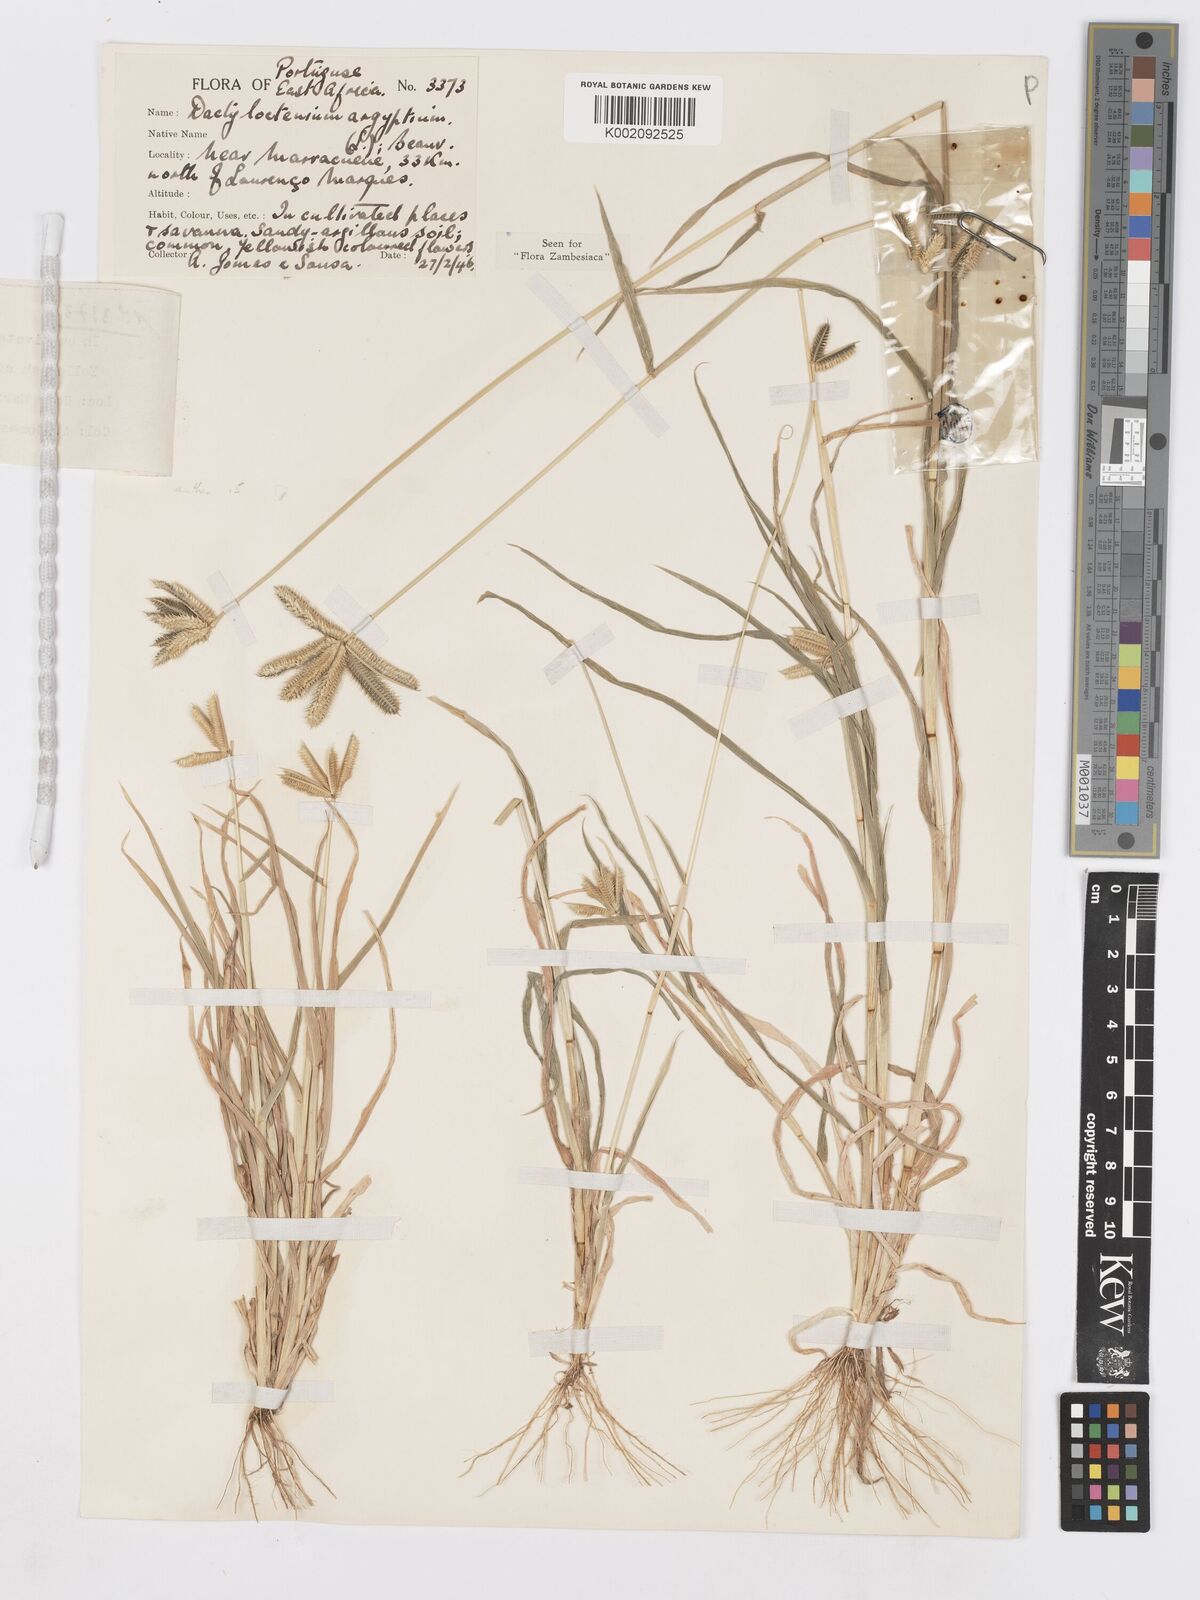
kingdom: Plantae
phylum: Tracheophyta
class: Liliopsida
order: Poales
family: Poaceae
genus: Dactyloctenium
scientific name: Dactyloctenium aegyptium
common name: Egyptian grass
